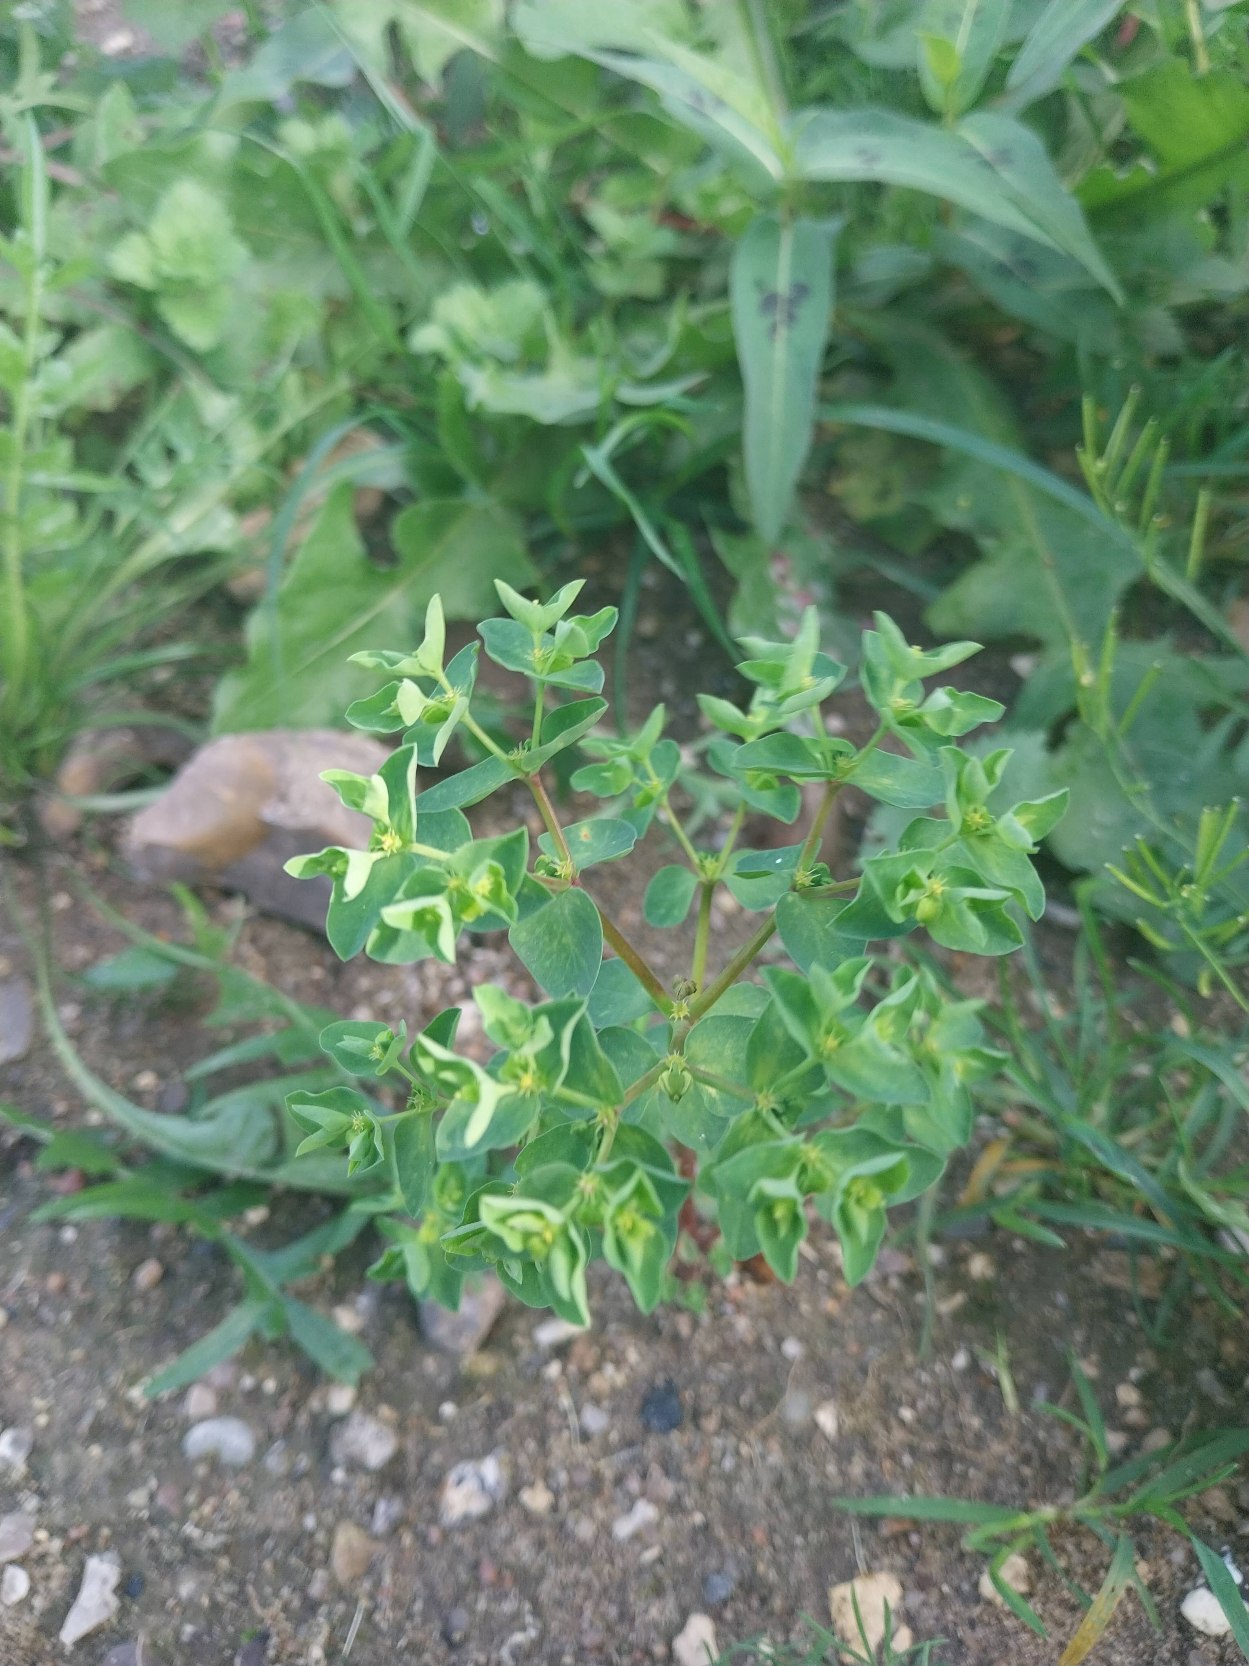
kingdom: Plantae
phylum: Tracheophyta
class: Magnoliopsida
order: Malpighiales
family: Euphorbiaceae
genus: Euphorbia
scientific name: Euphorbia peplus
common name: Gaffel-vortemælk
